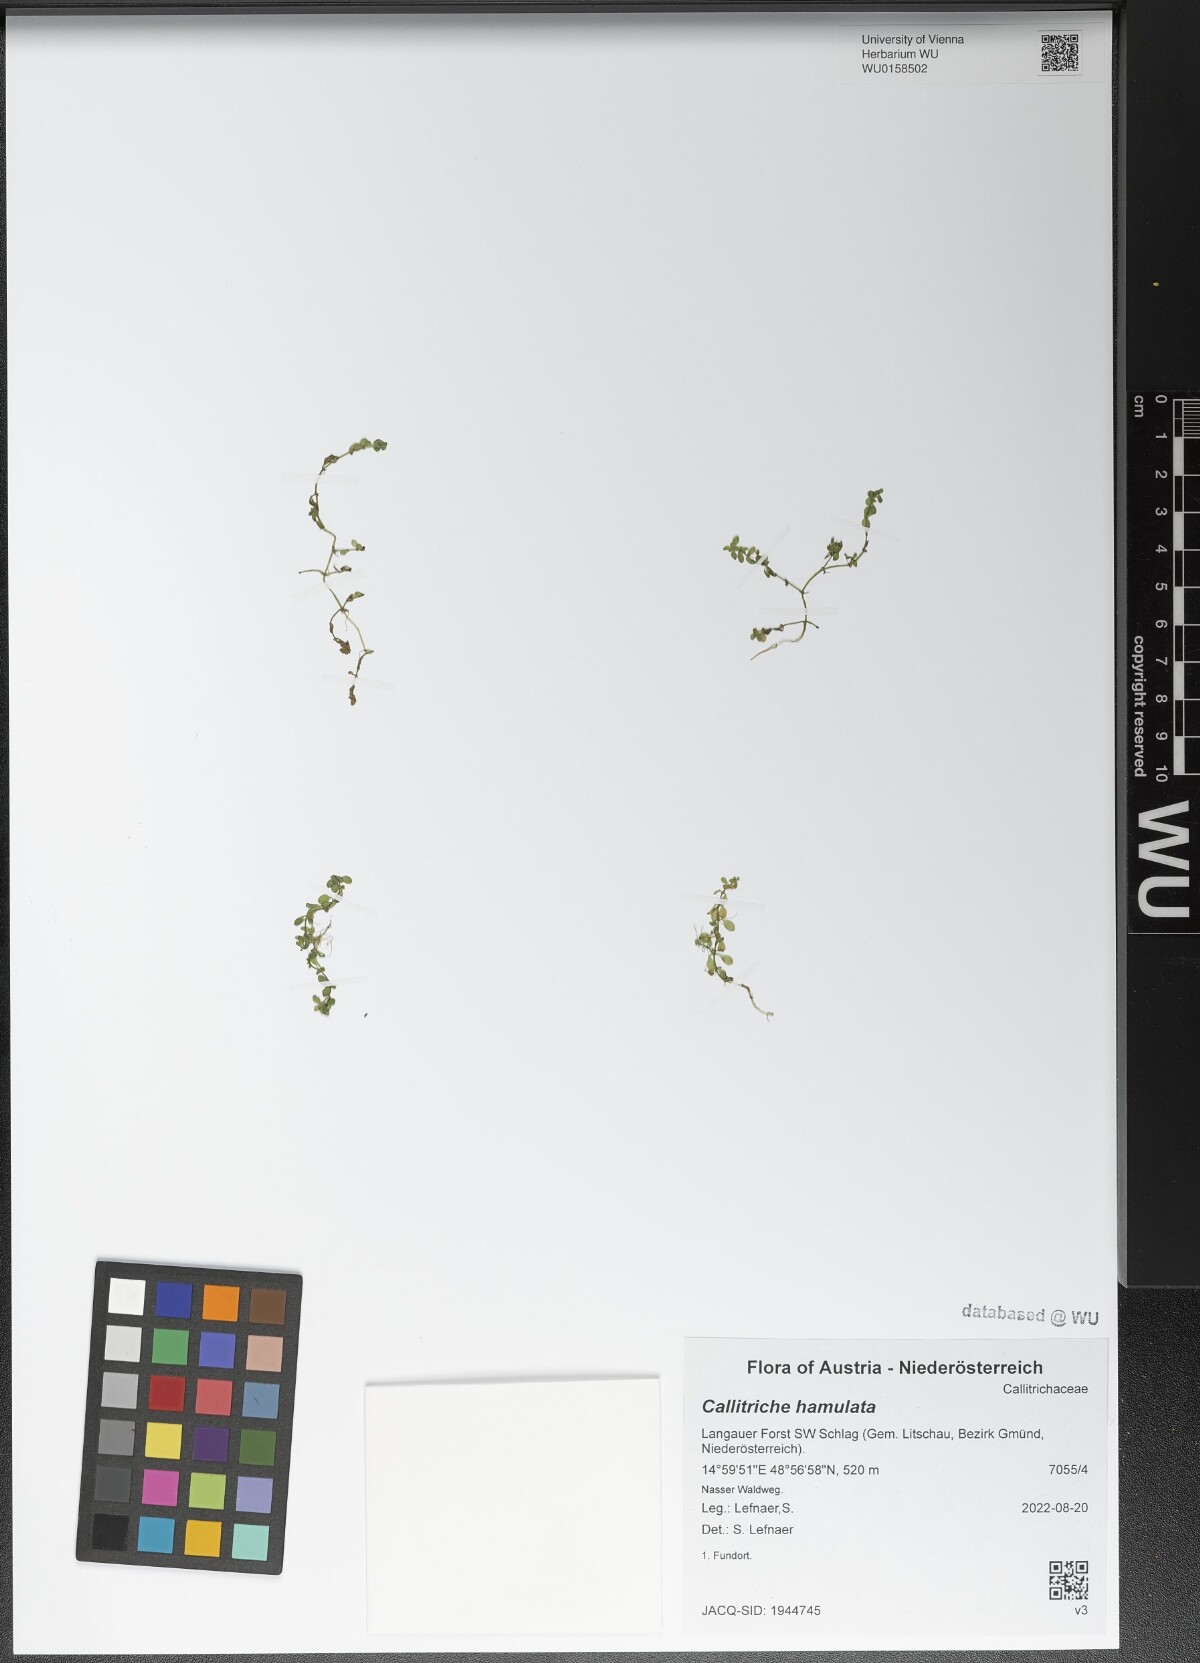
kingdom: Plantae
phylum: Tracheophyta
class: Magnoliopsida
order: Lamiales
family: Plantaginaceae
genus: Callitriche
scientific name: Callitriche hamulata
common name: Intermediate water-starwort
